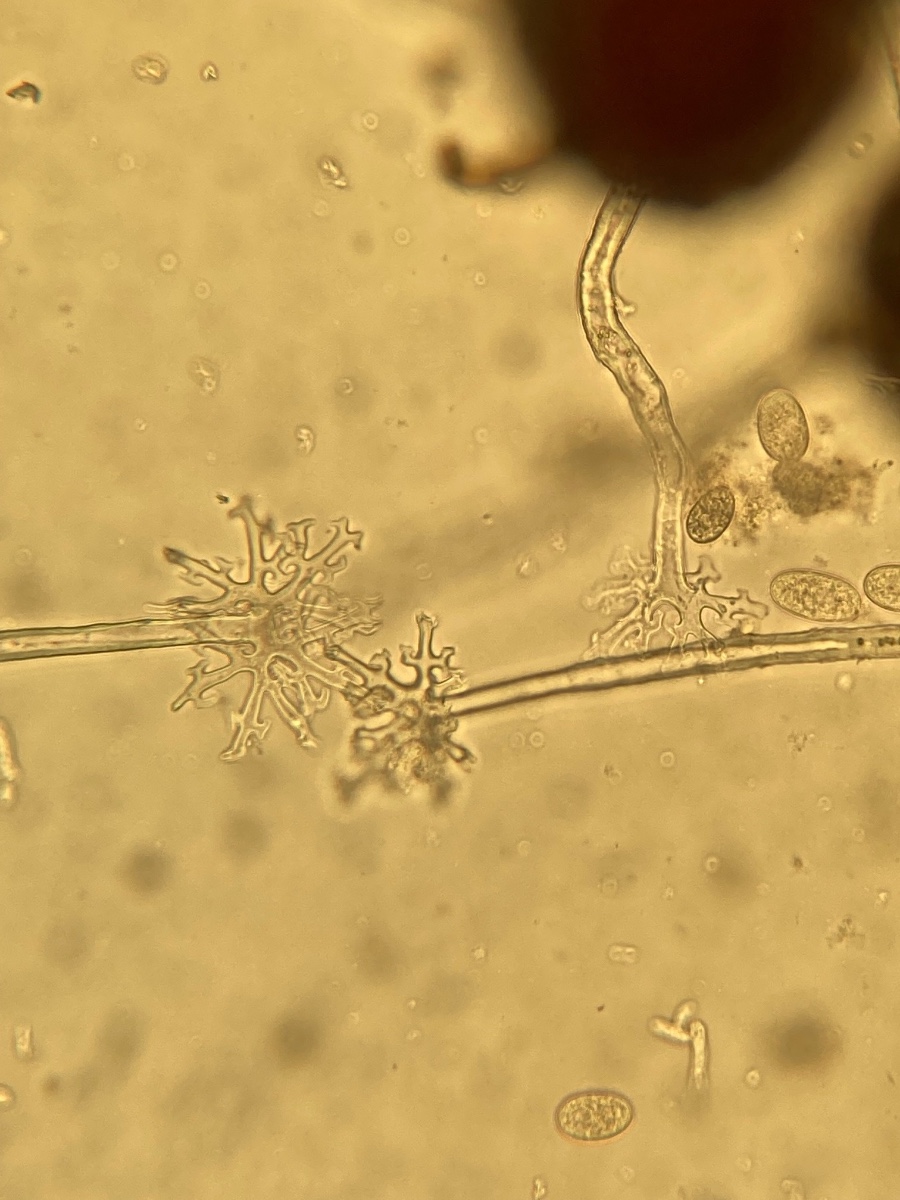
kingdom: Fungi
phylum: Ascomycota
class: Leotiomycetes
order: Helotiales
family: Erysiphaceae
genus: Erysiphe
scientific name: Erysiphe palczewskii
